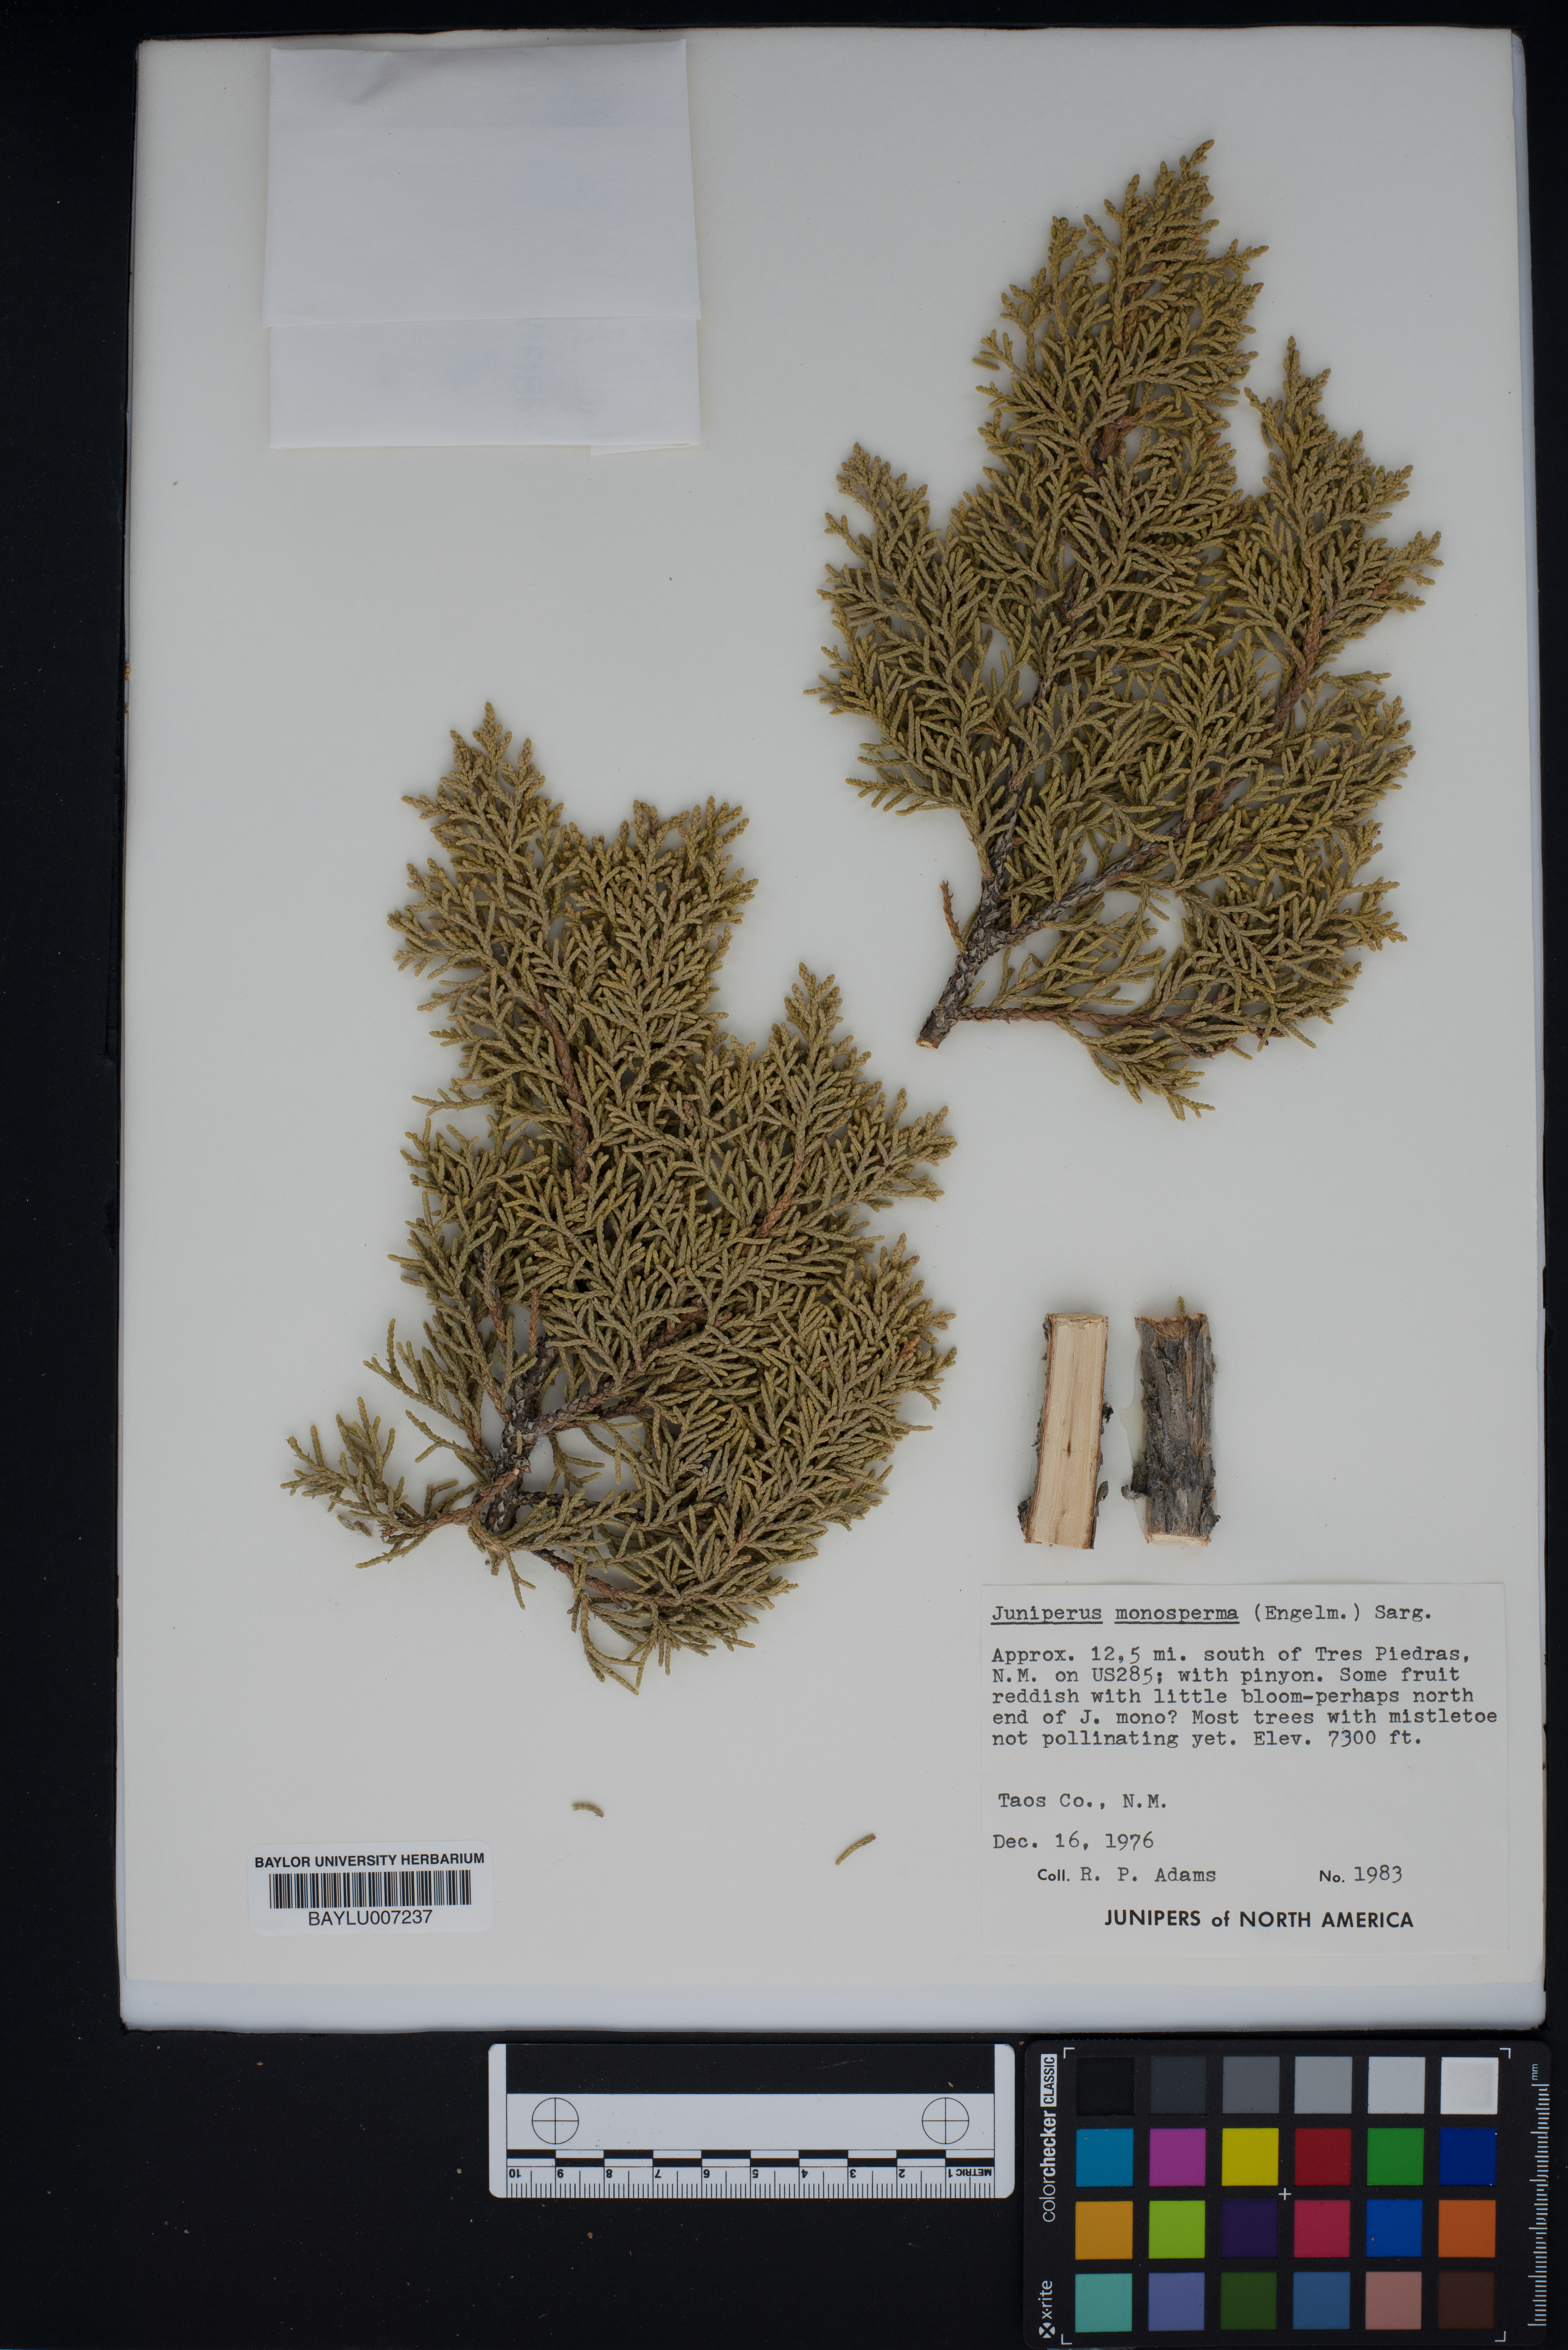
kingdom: Plantae
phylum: Tracheophyta
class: Pinopsida
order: Pinales
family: Cupressaceae
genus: Juniperus
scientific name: Juniperus monosperma
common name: One-seed juniper
